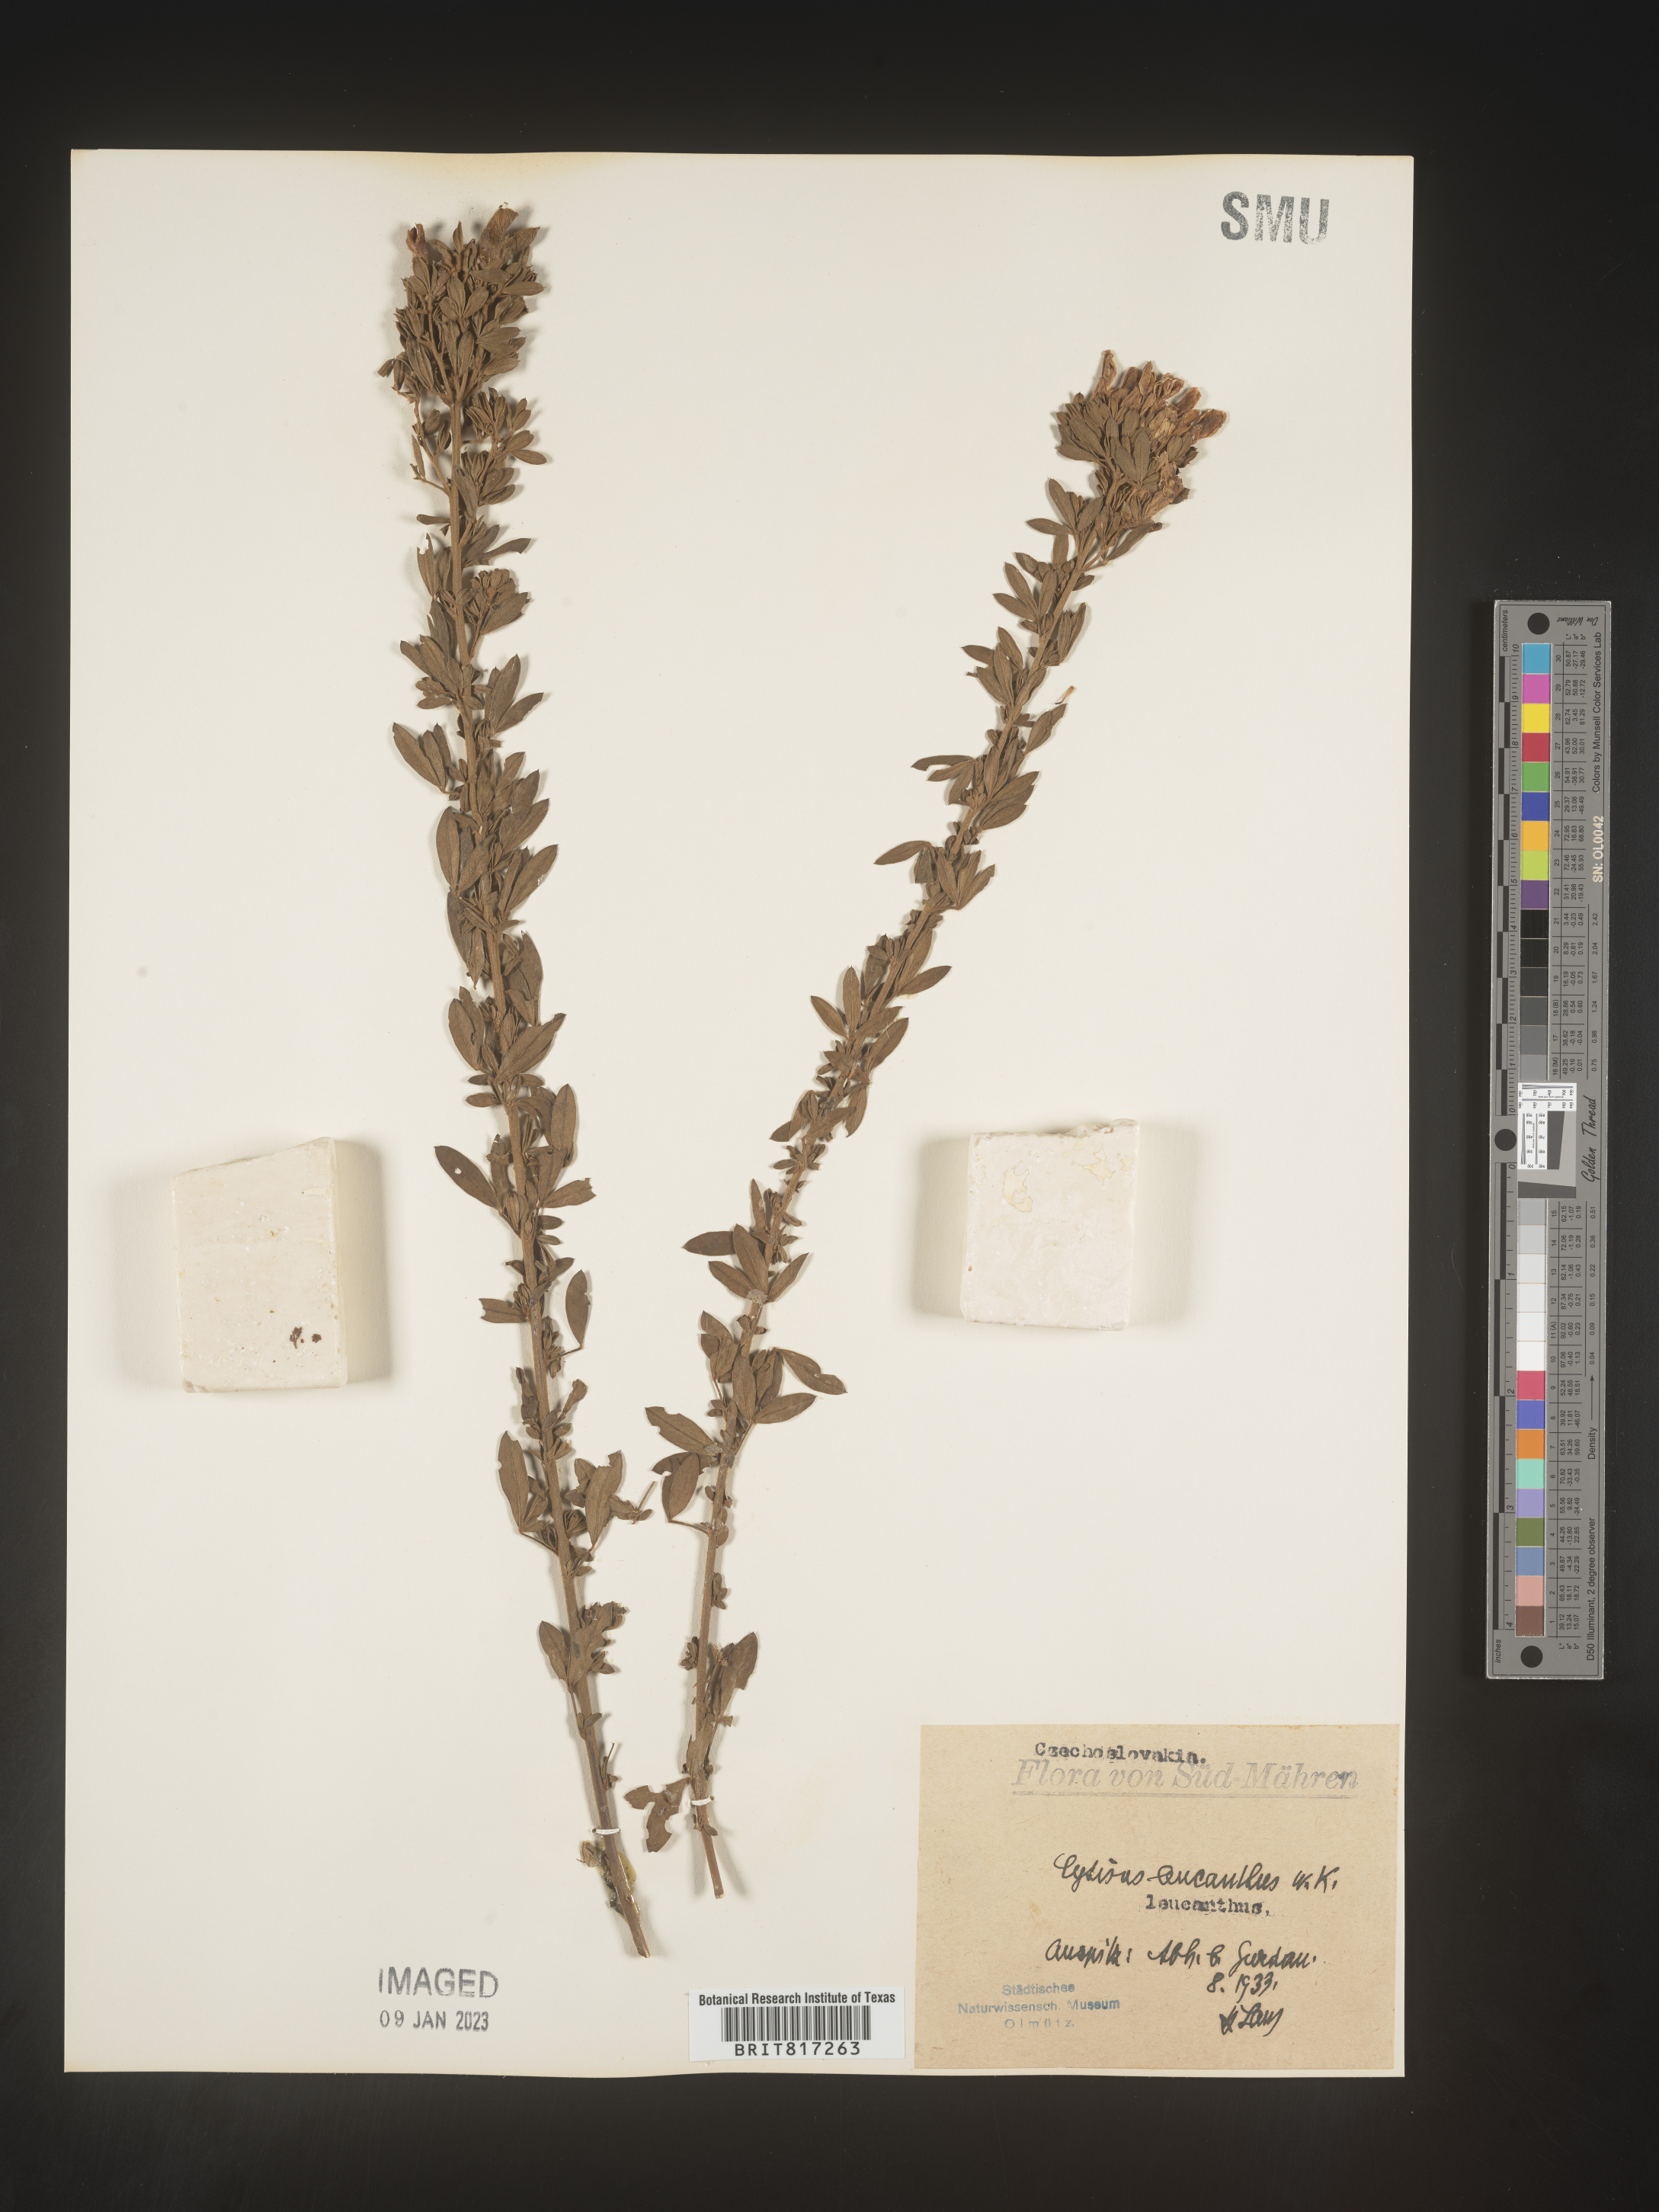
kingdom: Plantae
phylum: Tracheophyta
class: Magnoliopsida
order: Fabales
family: Fabaceae
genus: Cytisus
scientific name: Cytisus
